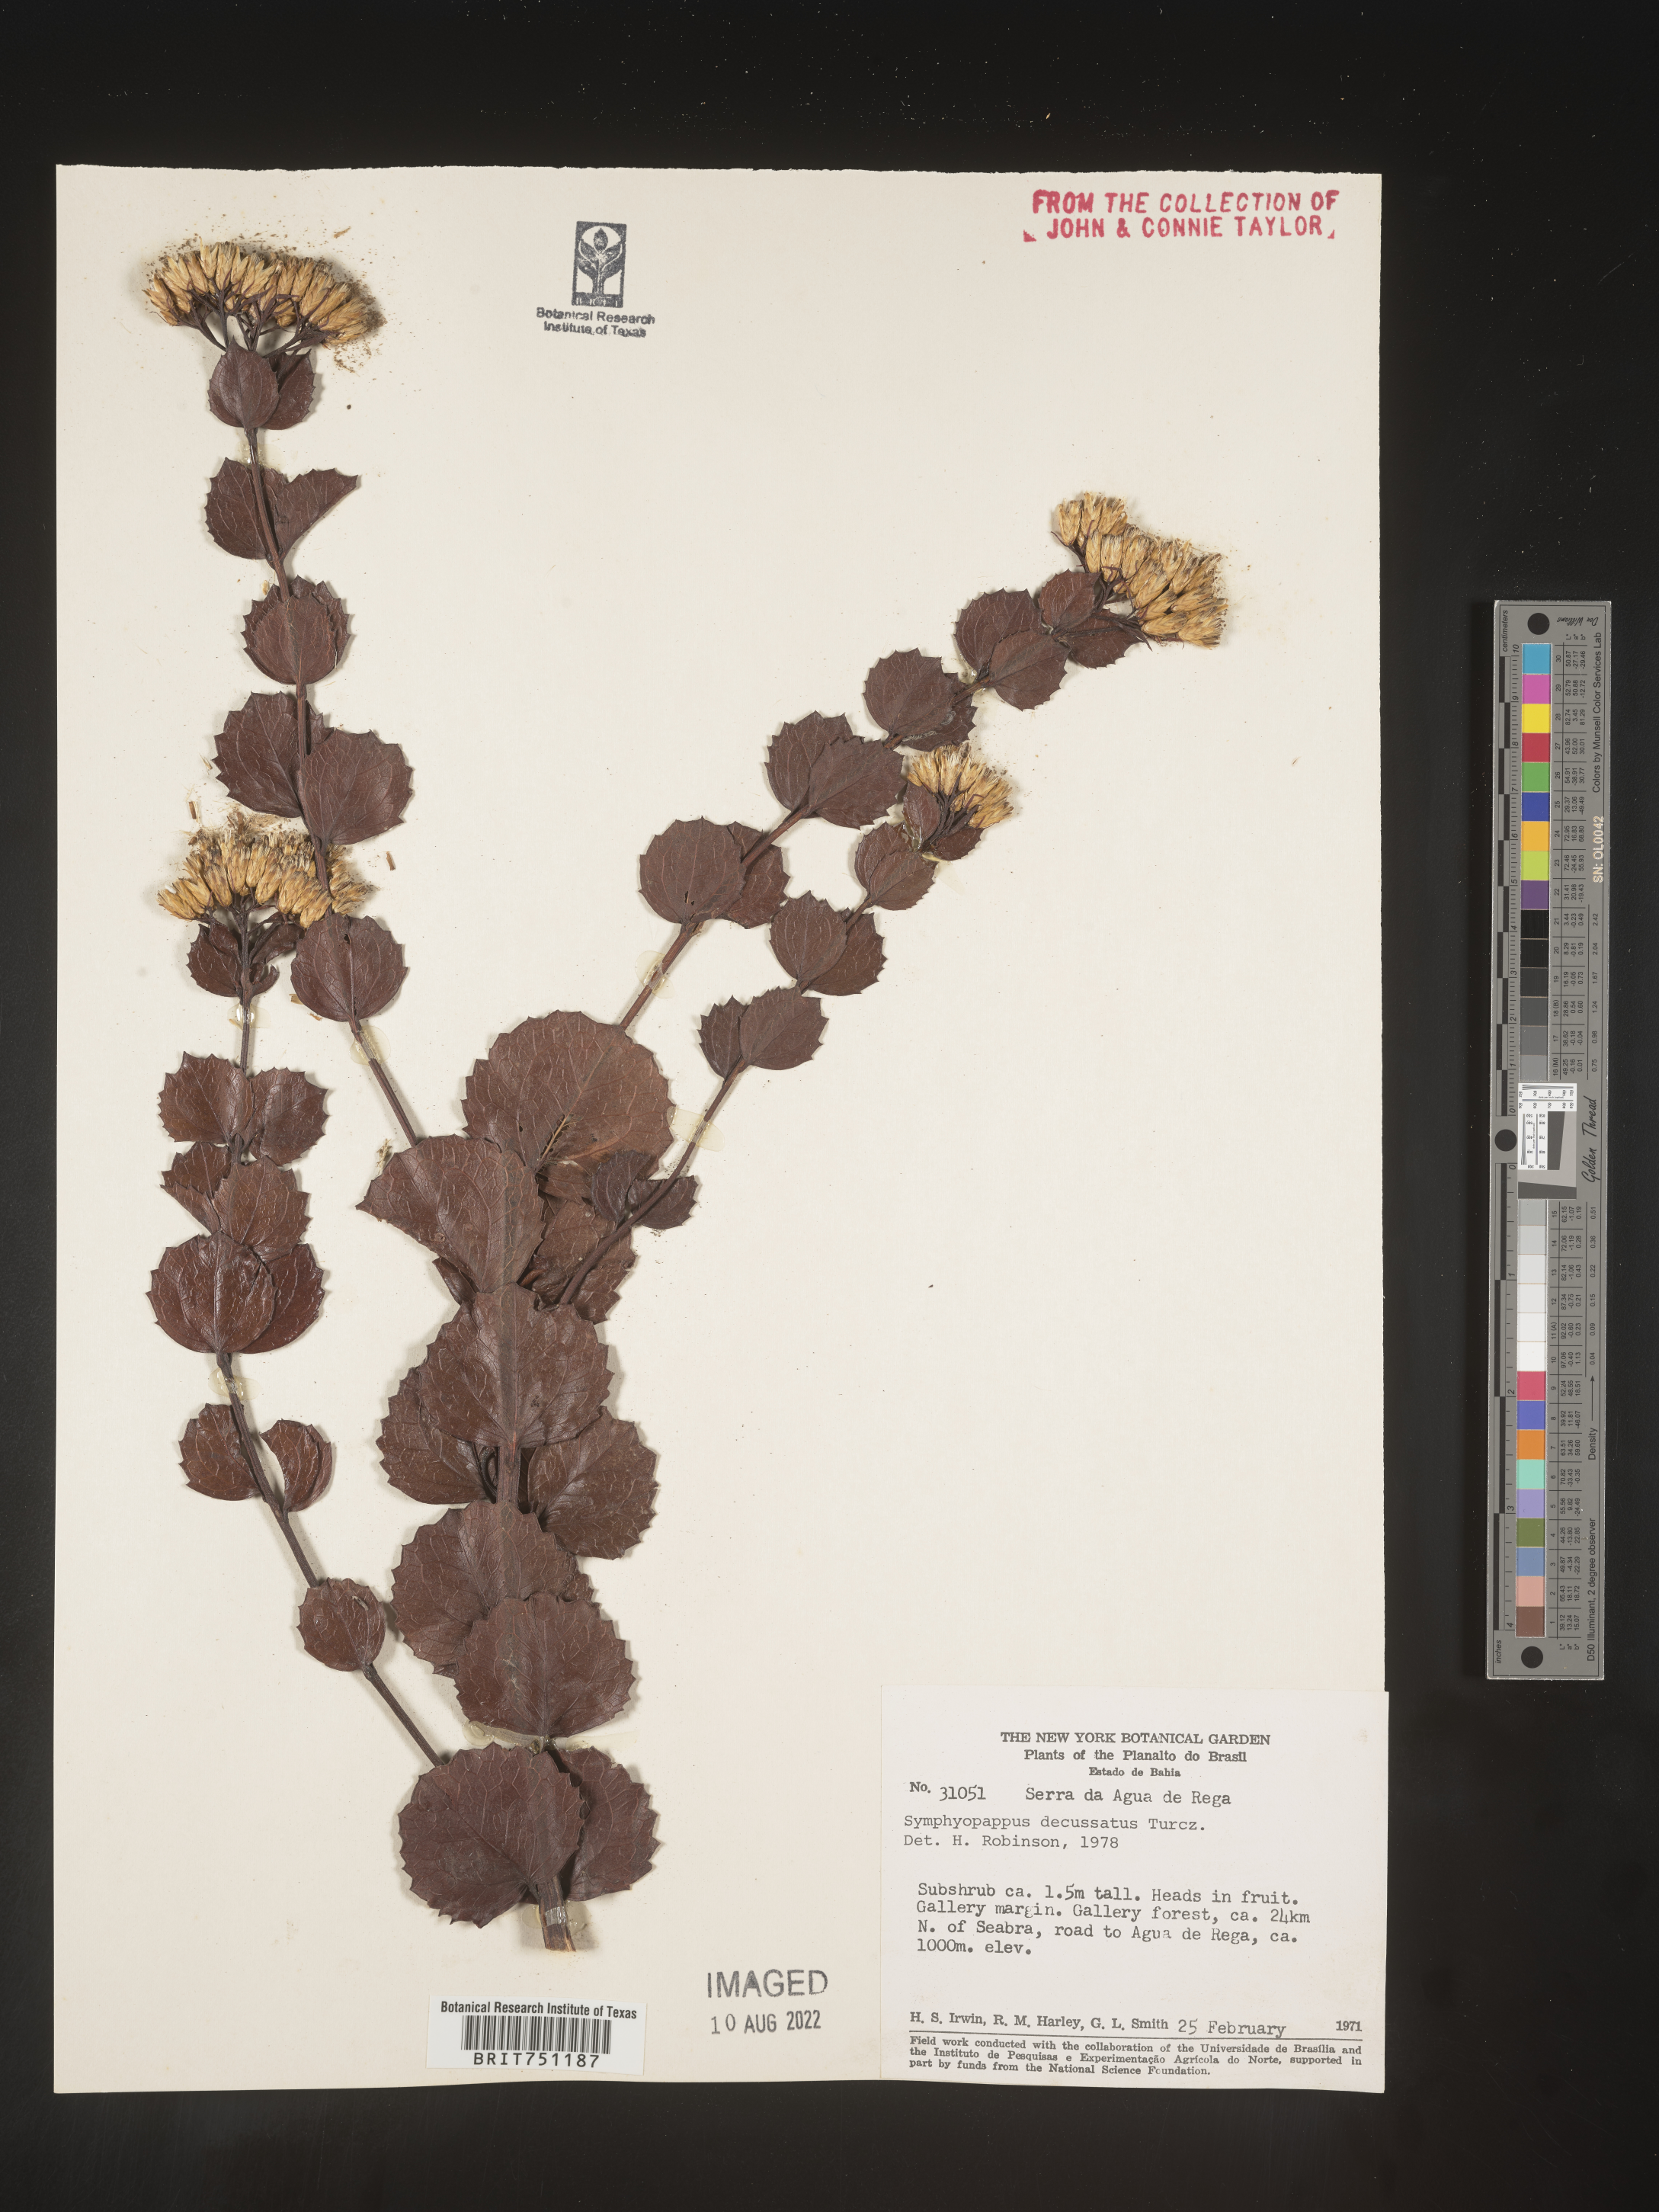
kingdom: Plantae
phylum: Tracheophyta
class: Magnoliopsida
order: Asterales
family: Asteraceae
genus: Symphyopappus
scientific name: Symphyopappus
